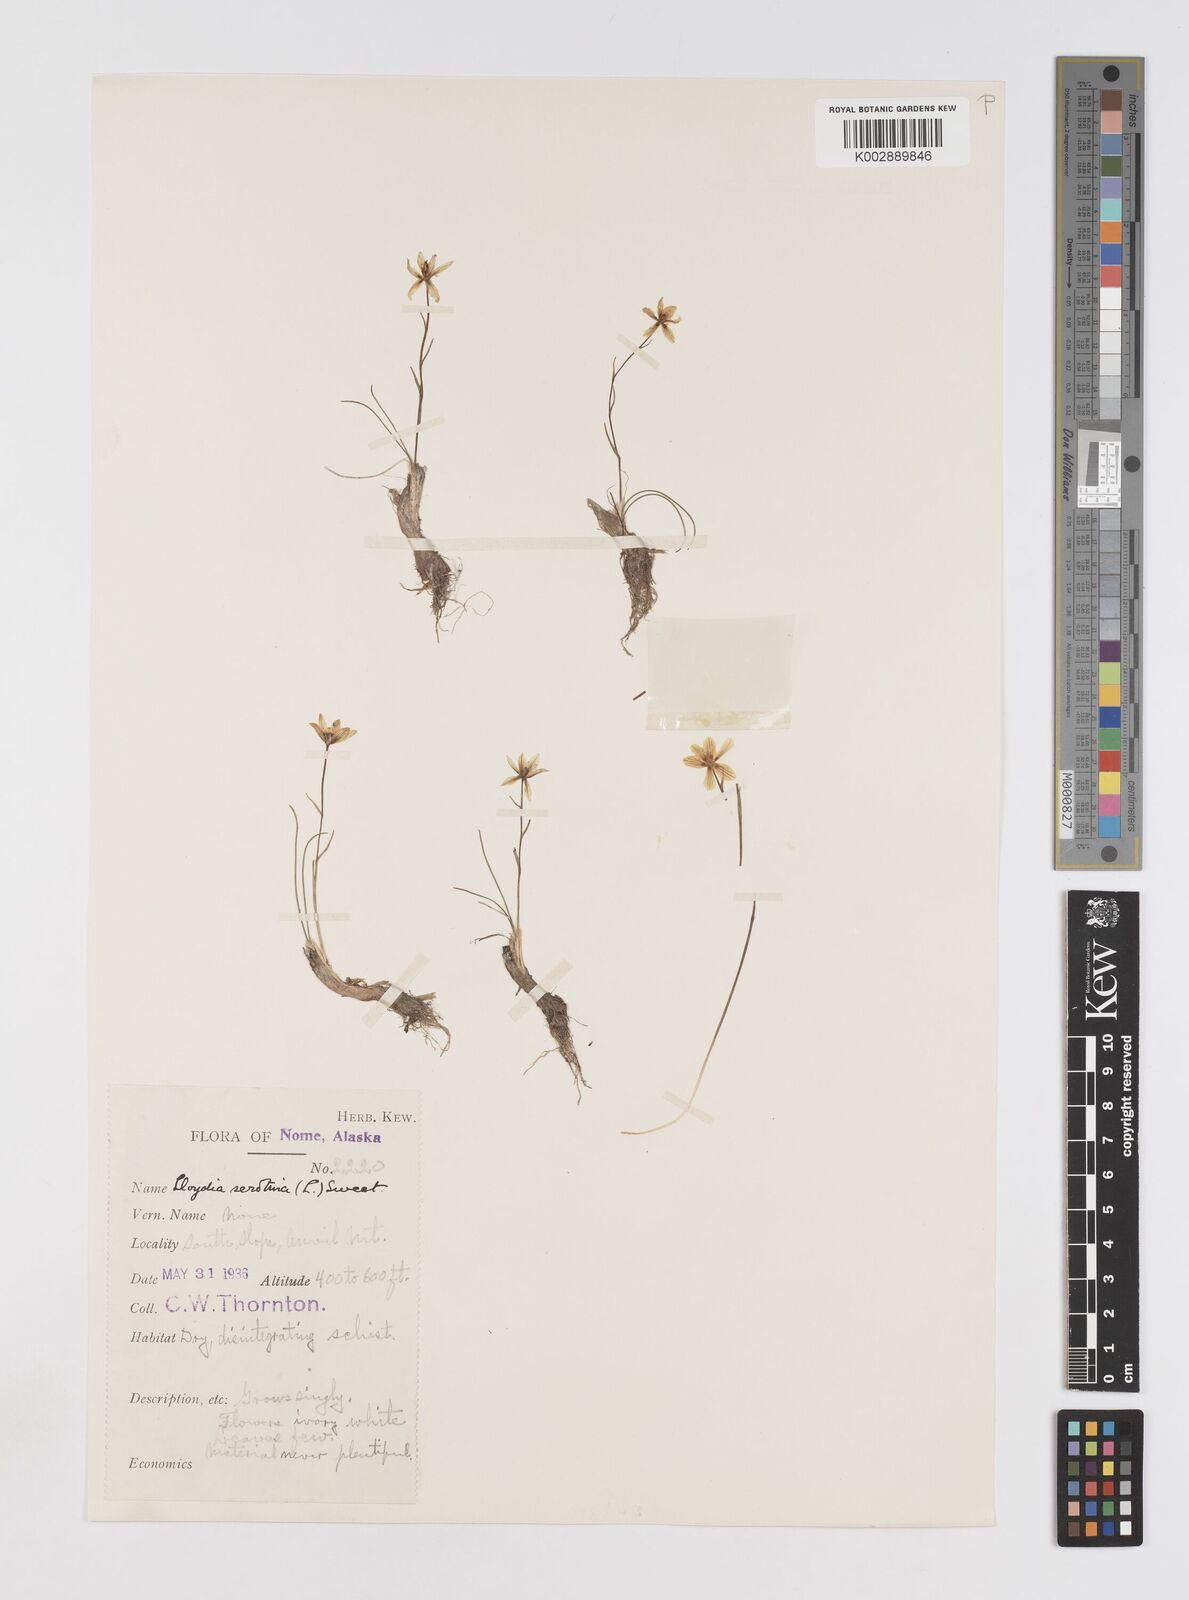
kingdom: Plantae
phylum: Tracheophyta
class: Liliopsida
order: Liliales
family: Liliaceae
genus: Gagea
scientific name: Gagea serotina
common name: Snowdon lily
